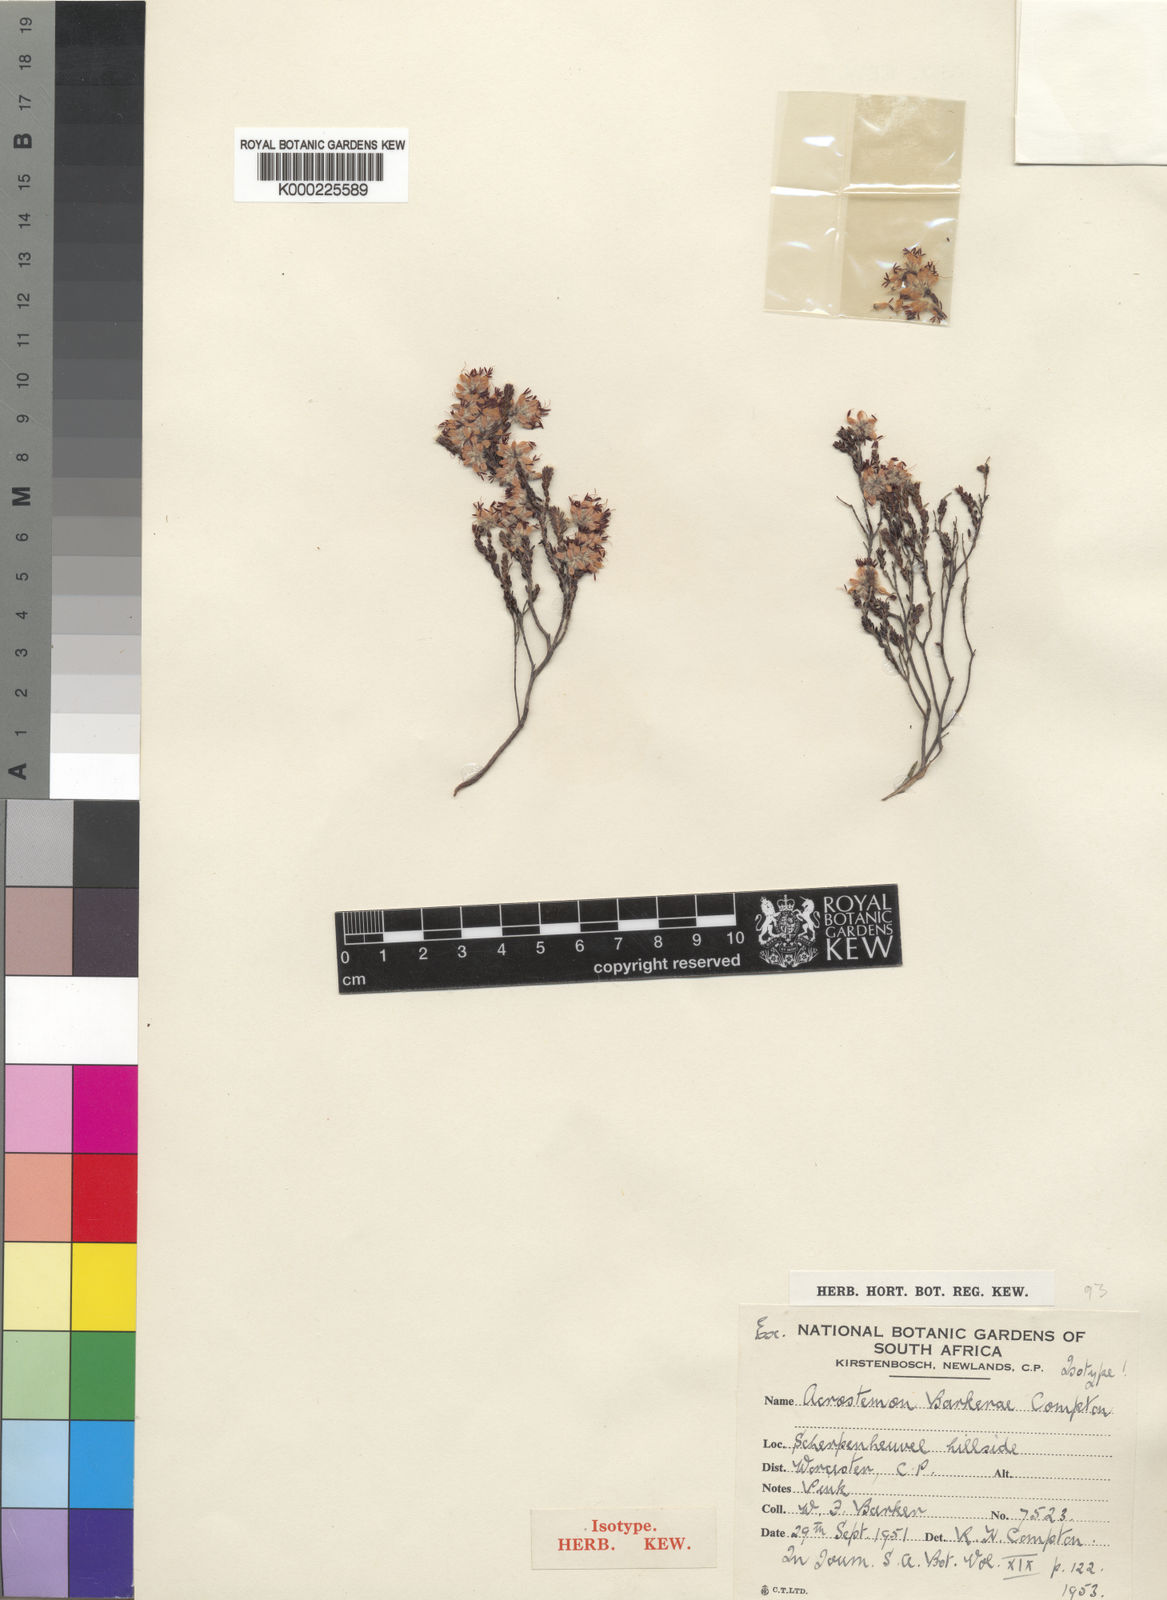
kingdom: Plantae
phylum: Tracheophyta
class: Magnoliopsida
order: Ericales
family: Ericaceae
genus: Erica
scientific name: Erica eriocephala
